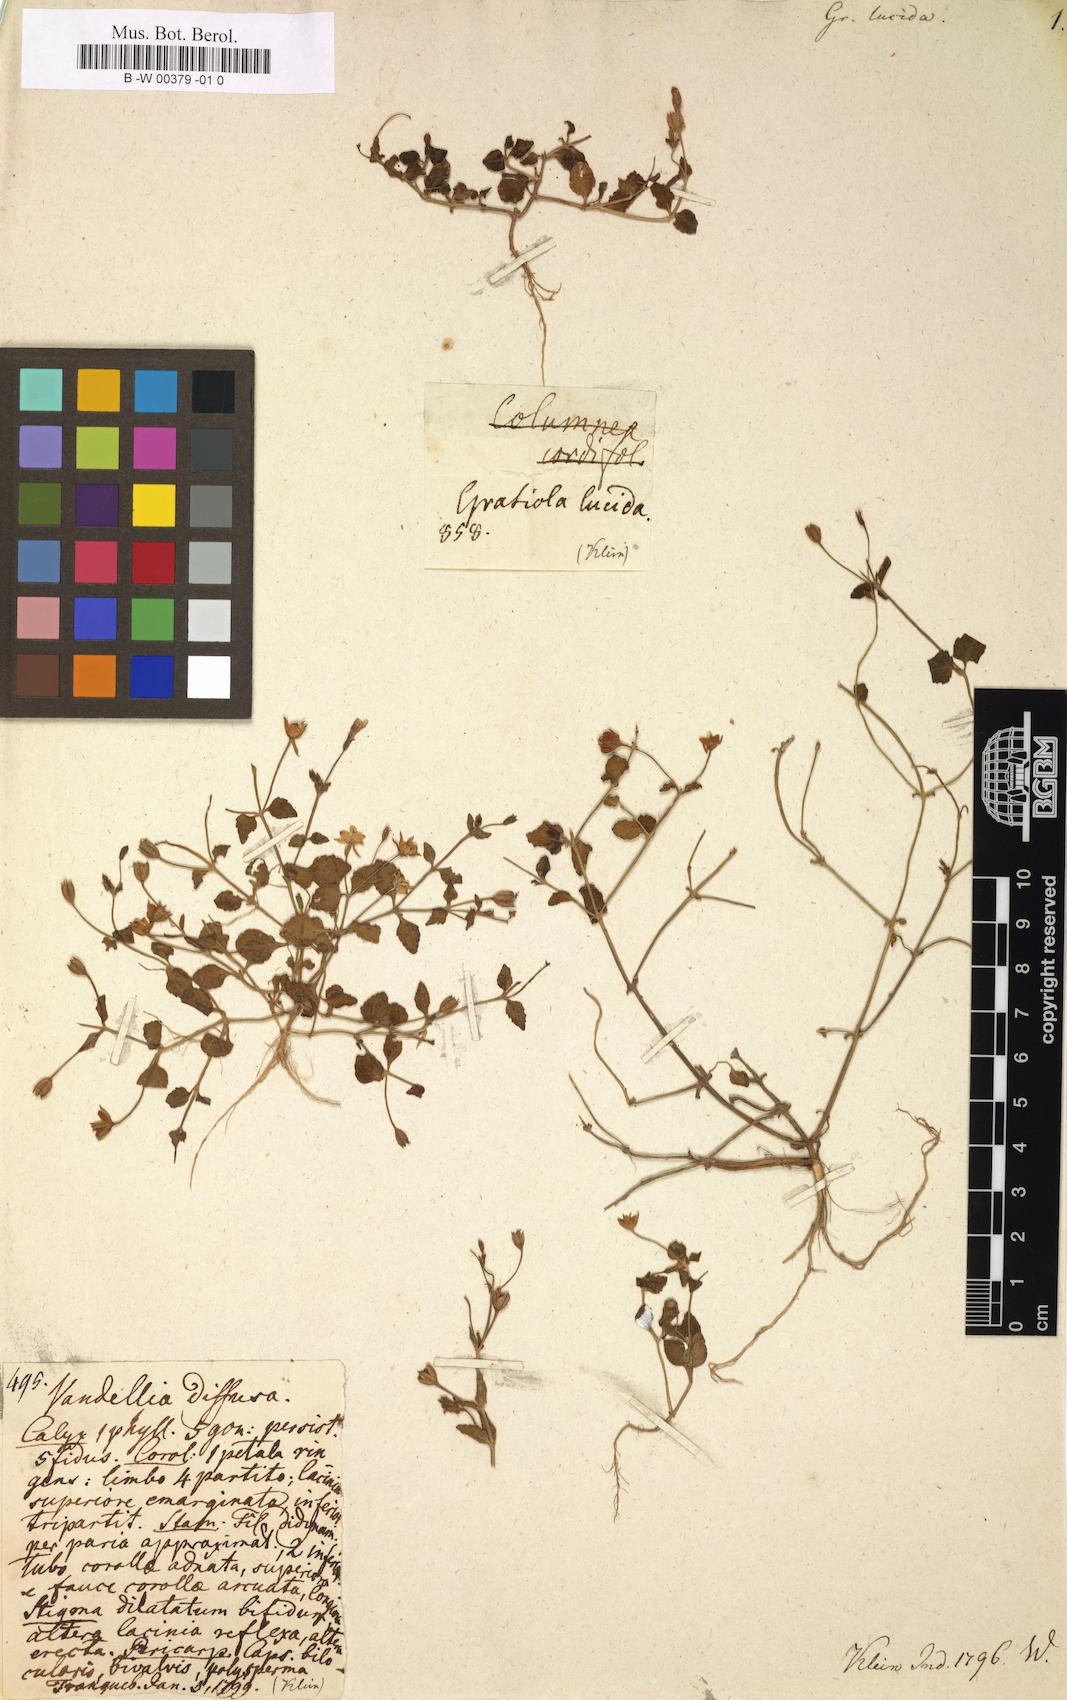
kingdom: Plantae
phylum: Tracheophyta
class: Magnoliopsida
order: Lamiales
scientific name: Lamiales
